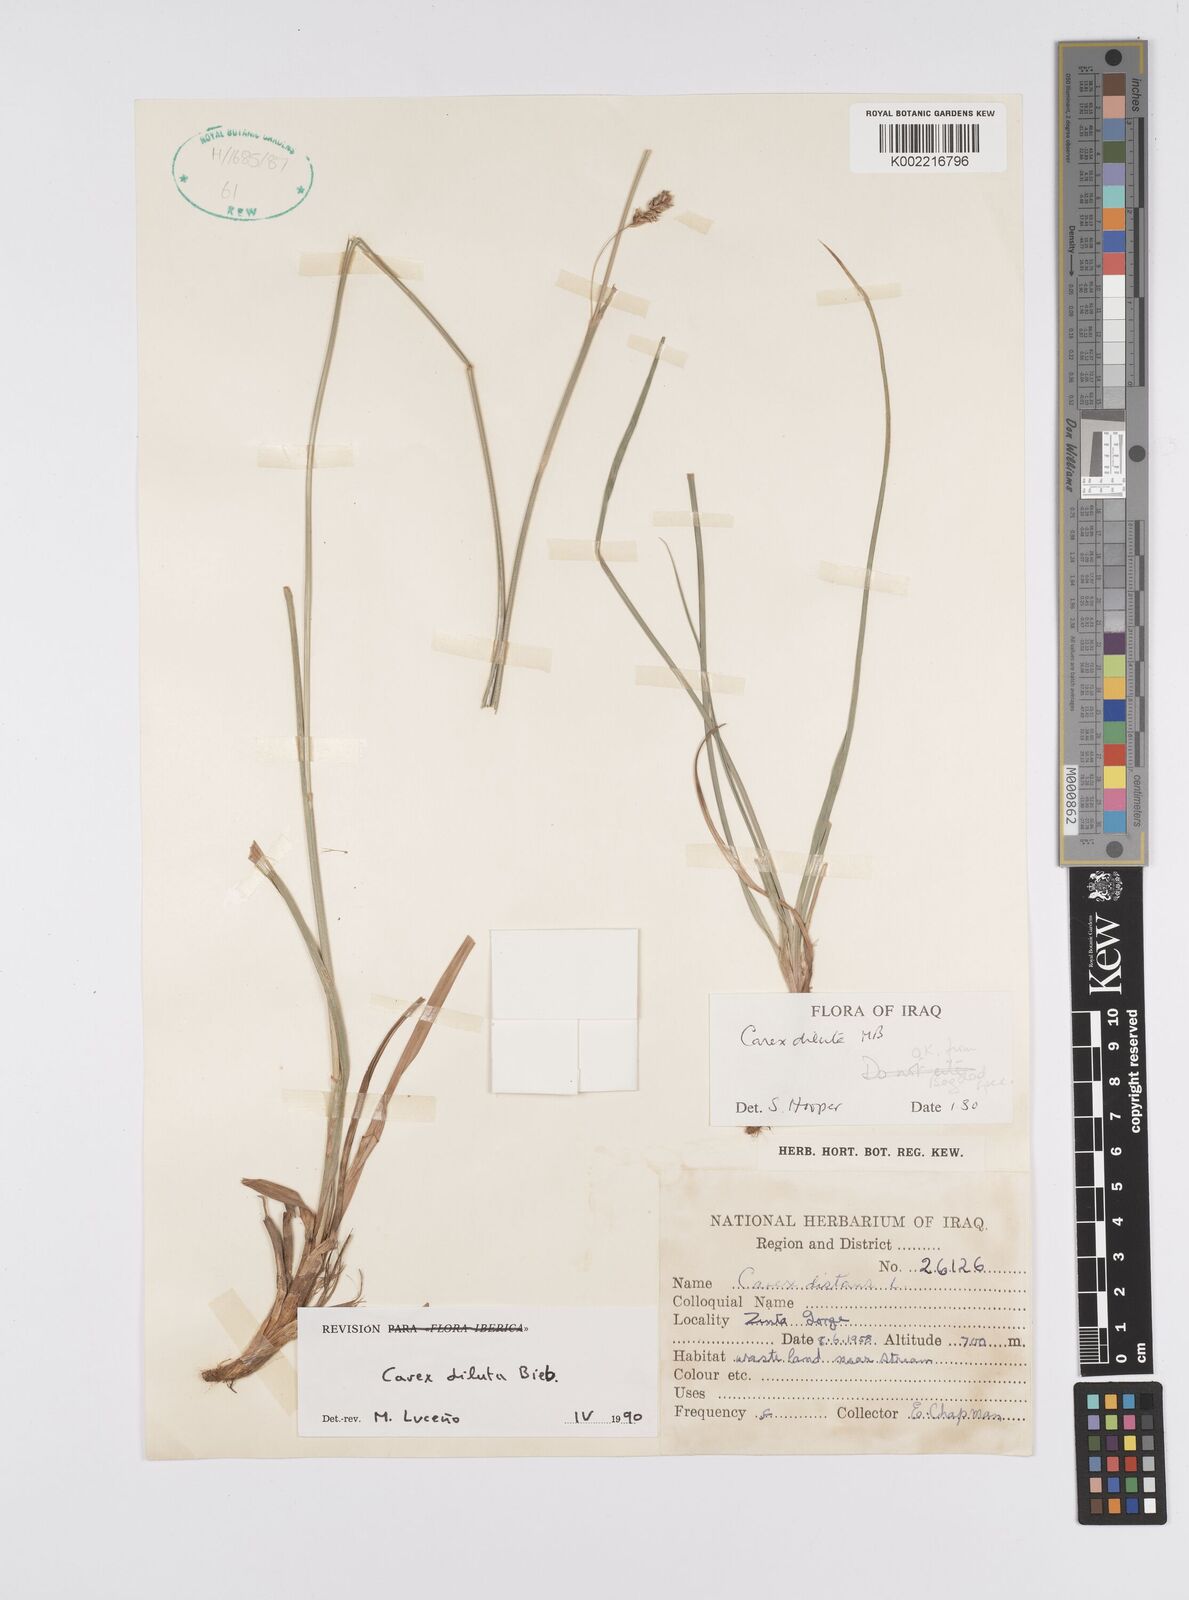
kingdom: Plantae
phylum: Tracheophyta
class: Liliopsida
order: Poales
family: Cyperaceae
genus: Carex
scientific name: Carex diluta
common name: Sedge
